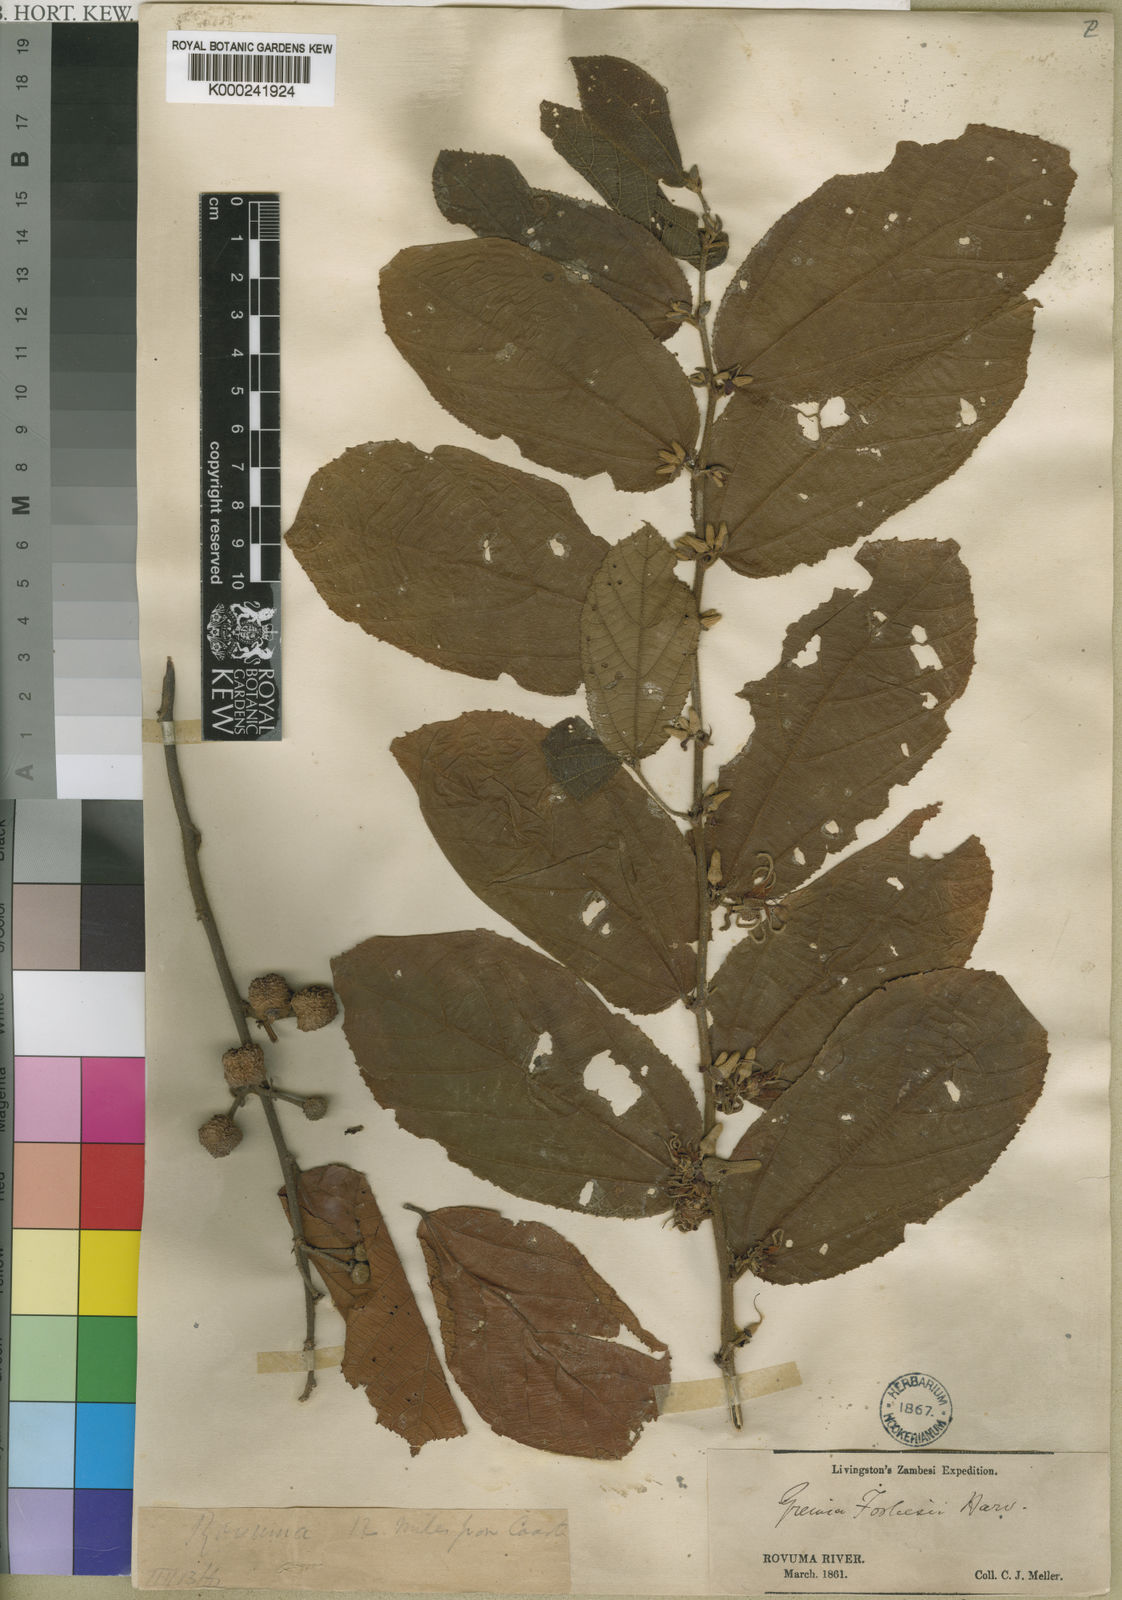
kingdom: Plantae
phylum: Tracheophyta
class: Magnoliopsida
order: Malvales
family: Malvaceae
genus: Grewia
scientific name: Grewia forbesii
